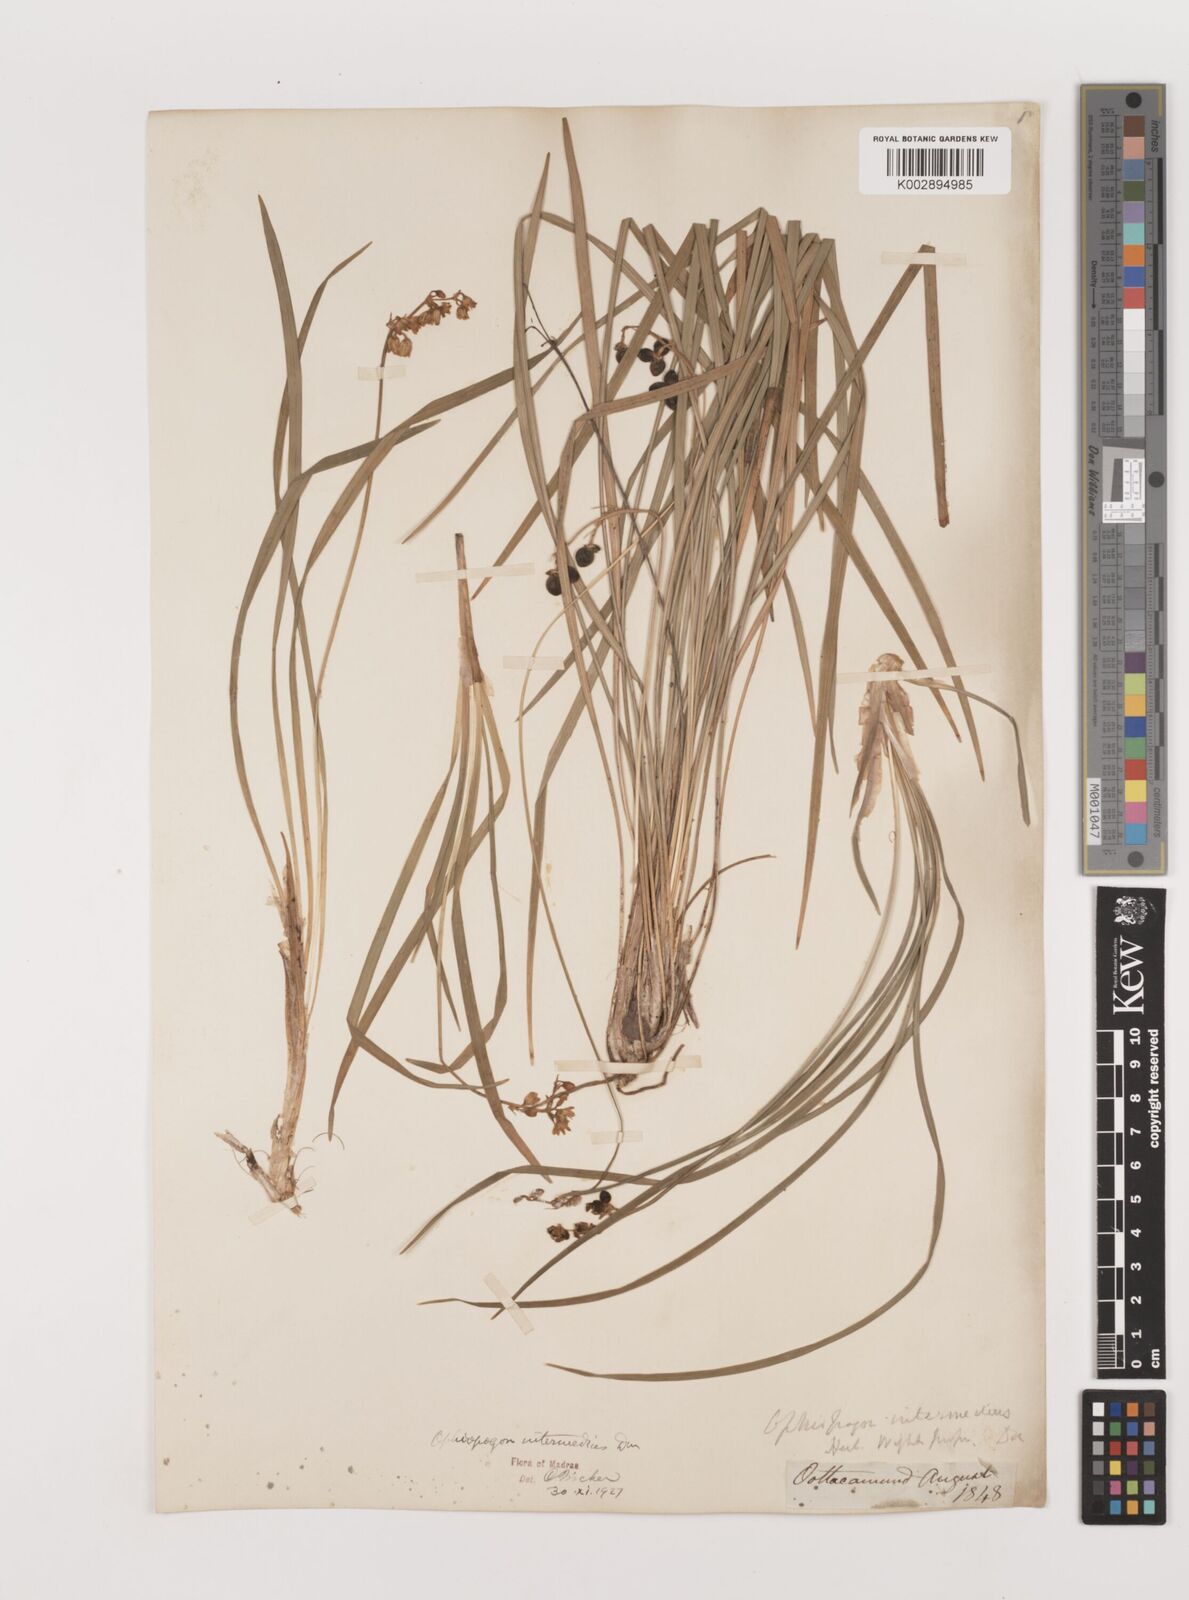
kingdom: Plantae
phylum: Tracheophyta
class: Liliopsida
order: Asparagales
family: Asparagaceae
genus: Ophiopogon
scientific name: Ophiopogon intermedius
